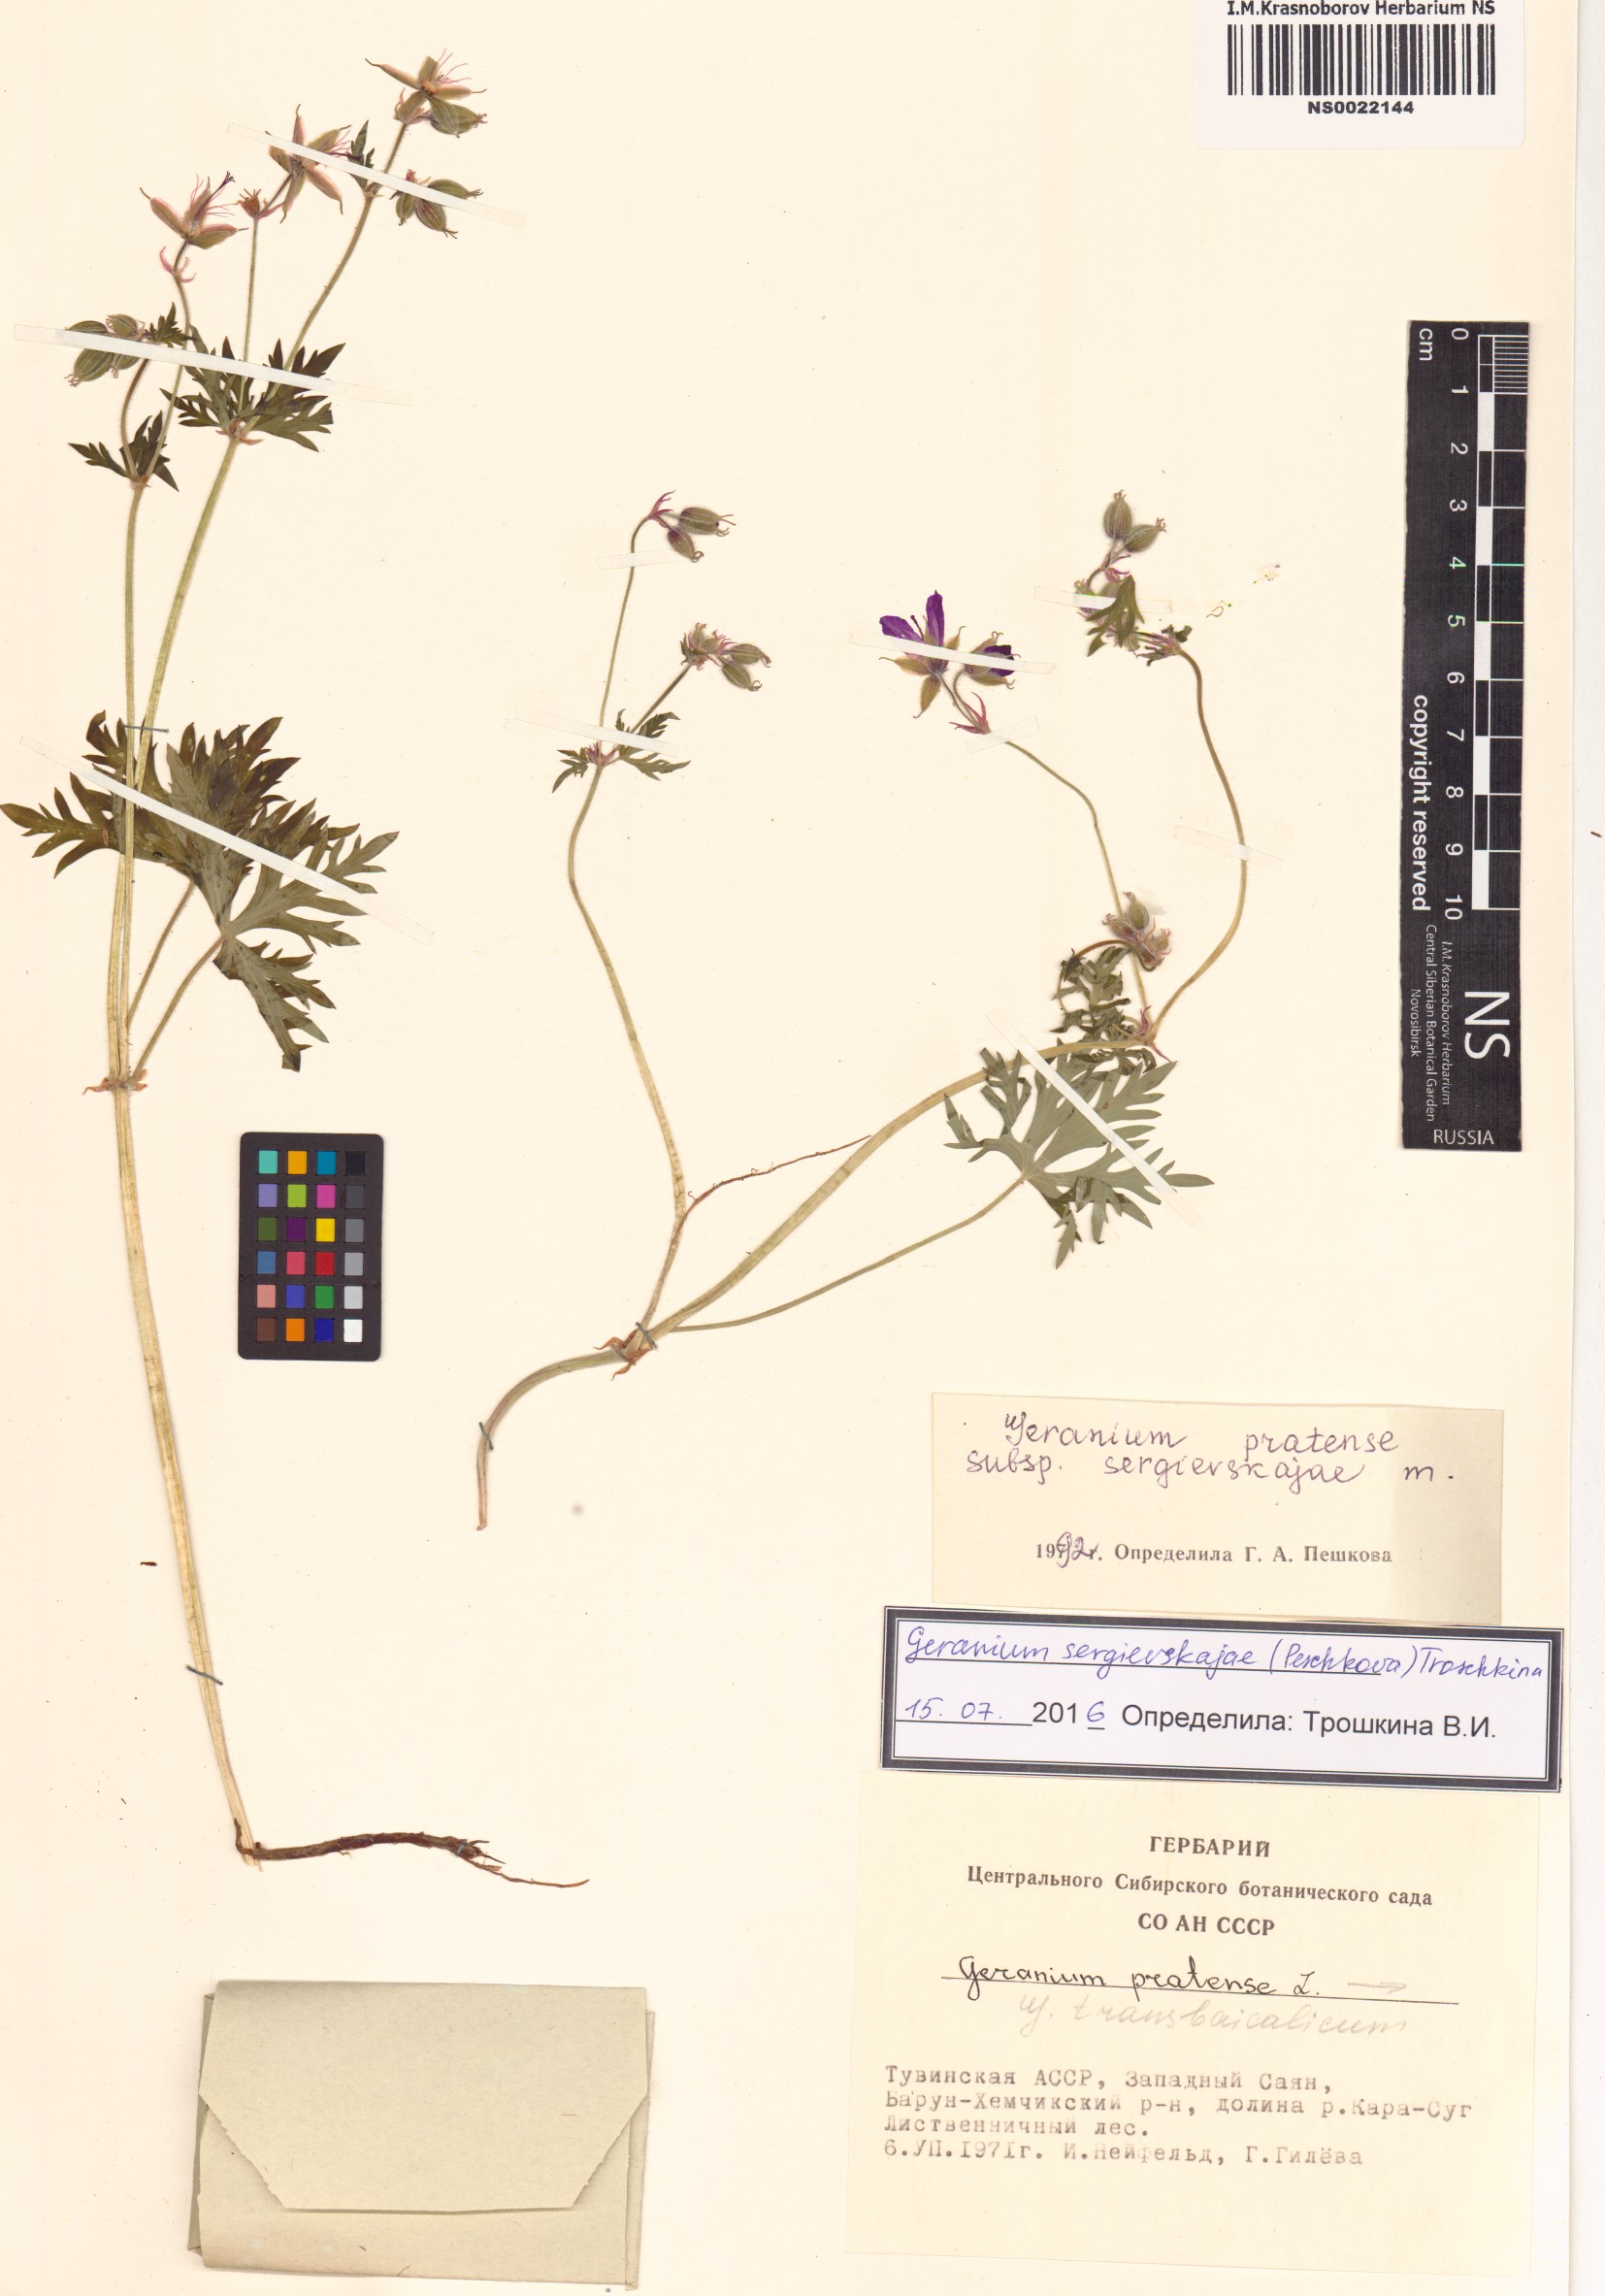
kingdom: Plantae
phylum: Tracheophyta
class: Magnoliopsida
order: Geraniales
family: Geraniaceae
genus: Geranium
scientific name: Geranium pratense
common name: Meadow crane's-bill
